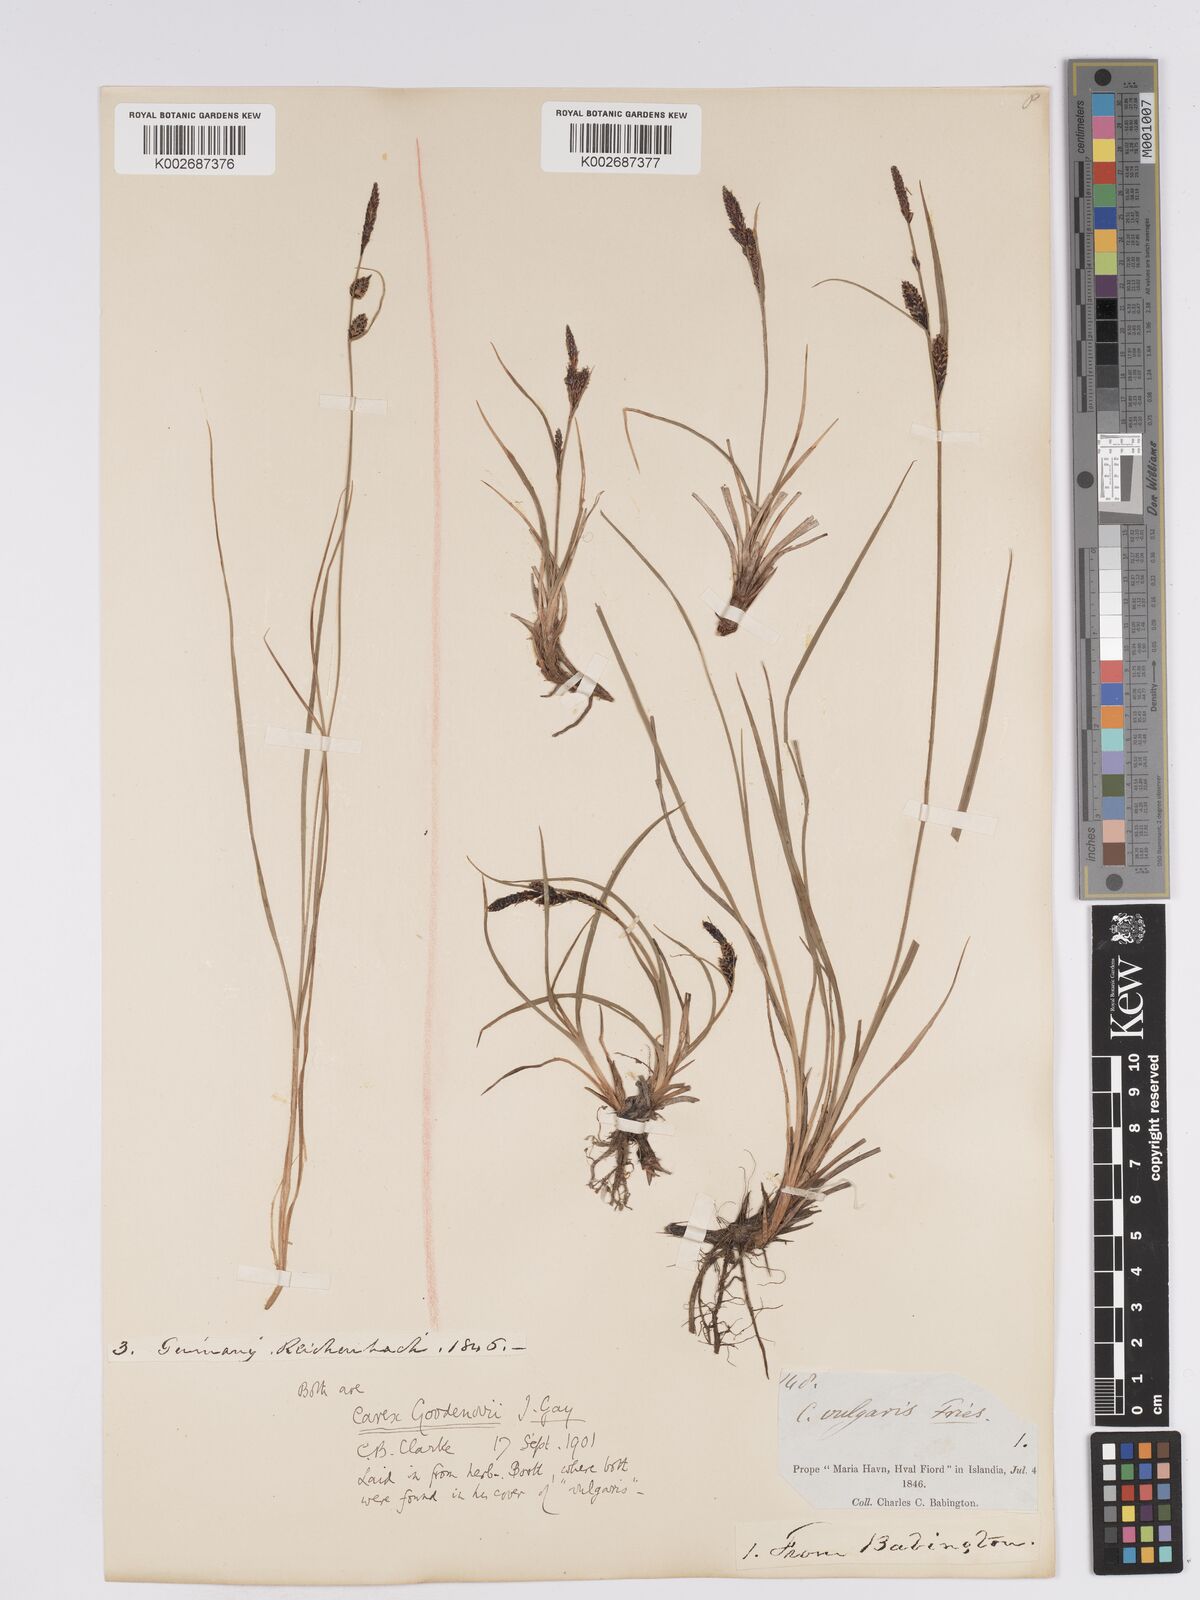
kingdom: Plantae
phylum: Tracheophyta
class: Liliopsida
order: Poales
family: Cyperaceae
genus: Carex
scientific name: Carex nigra
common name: Common sedge
